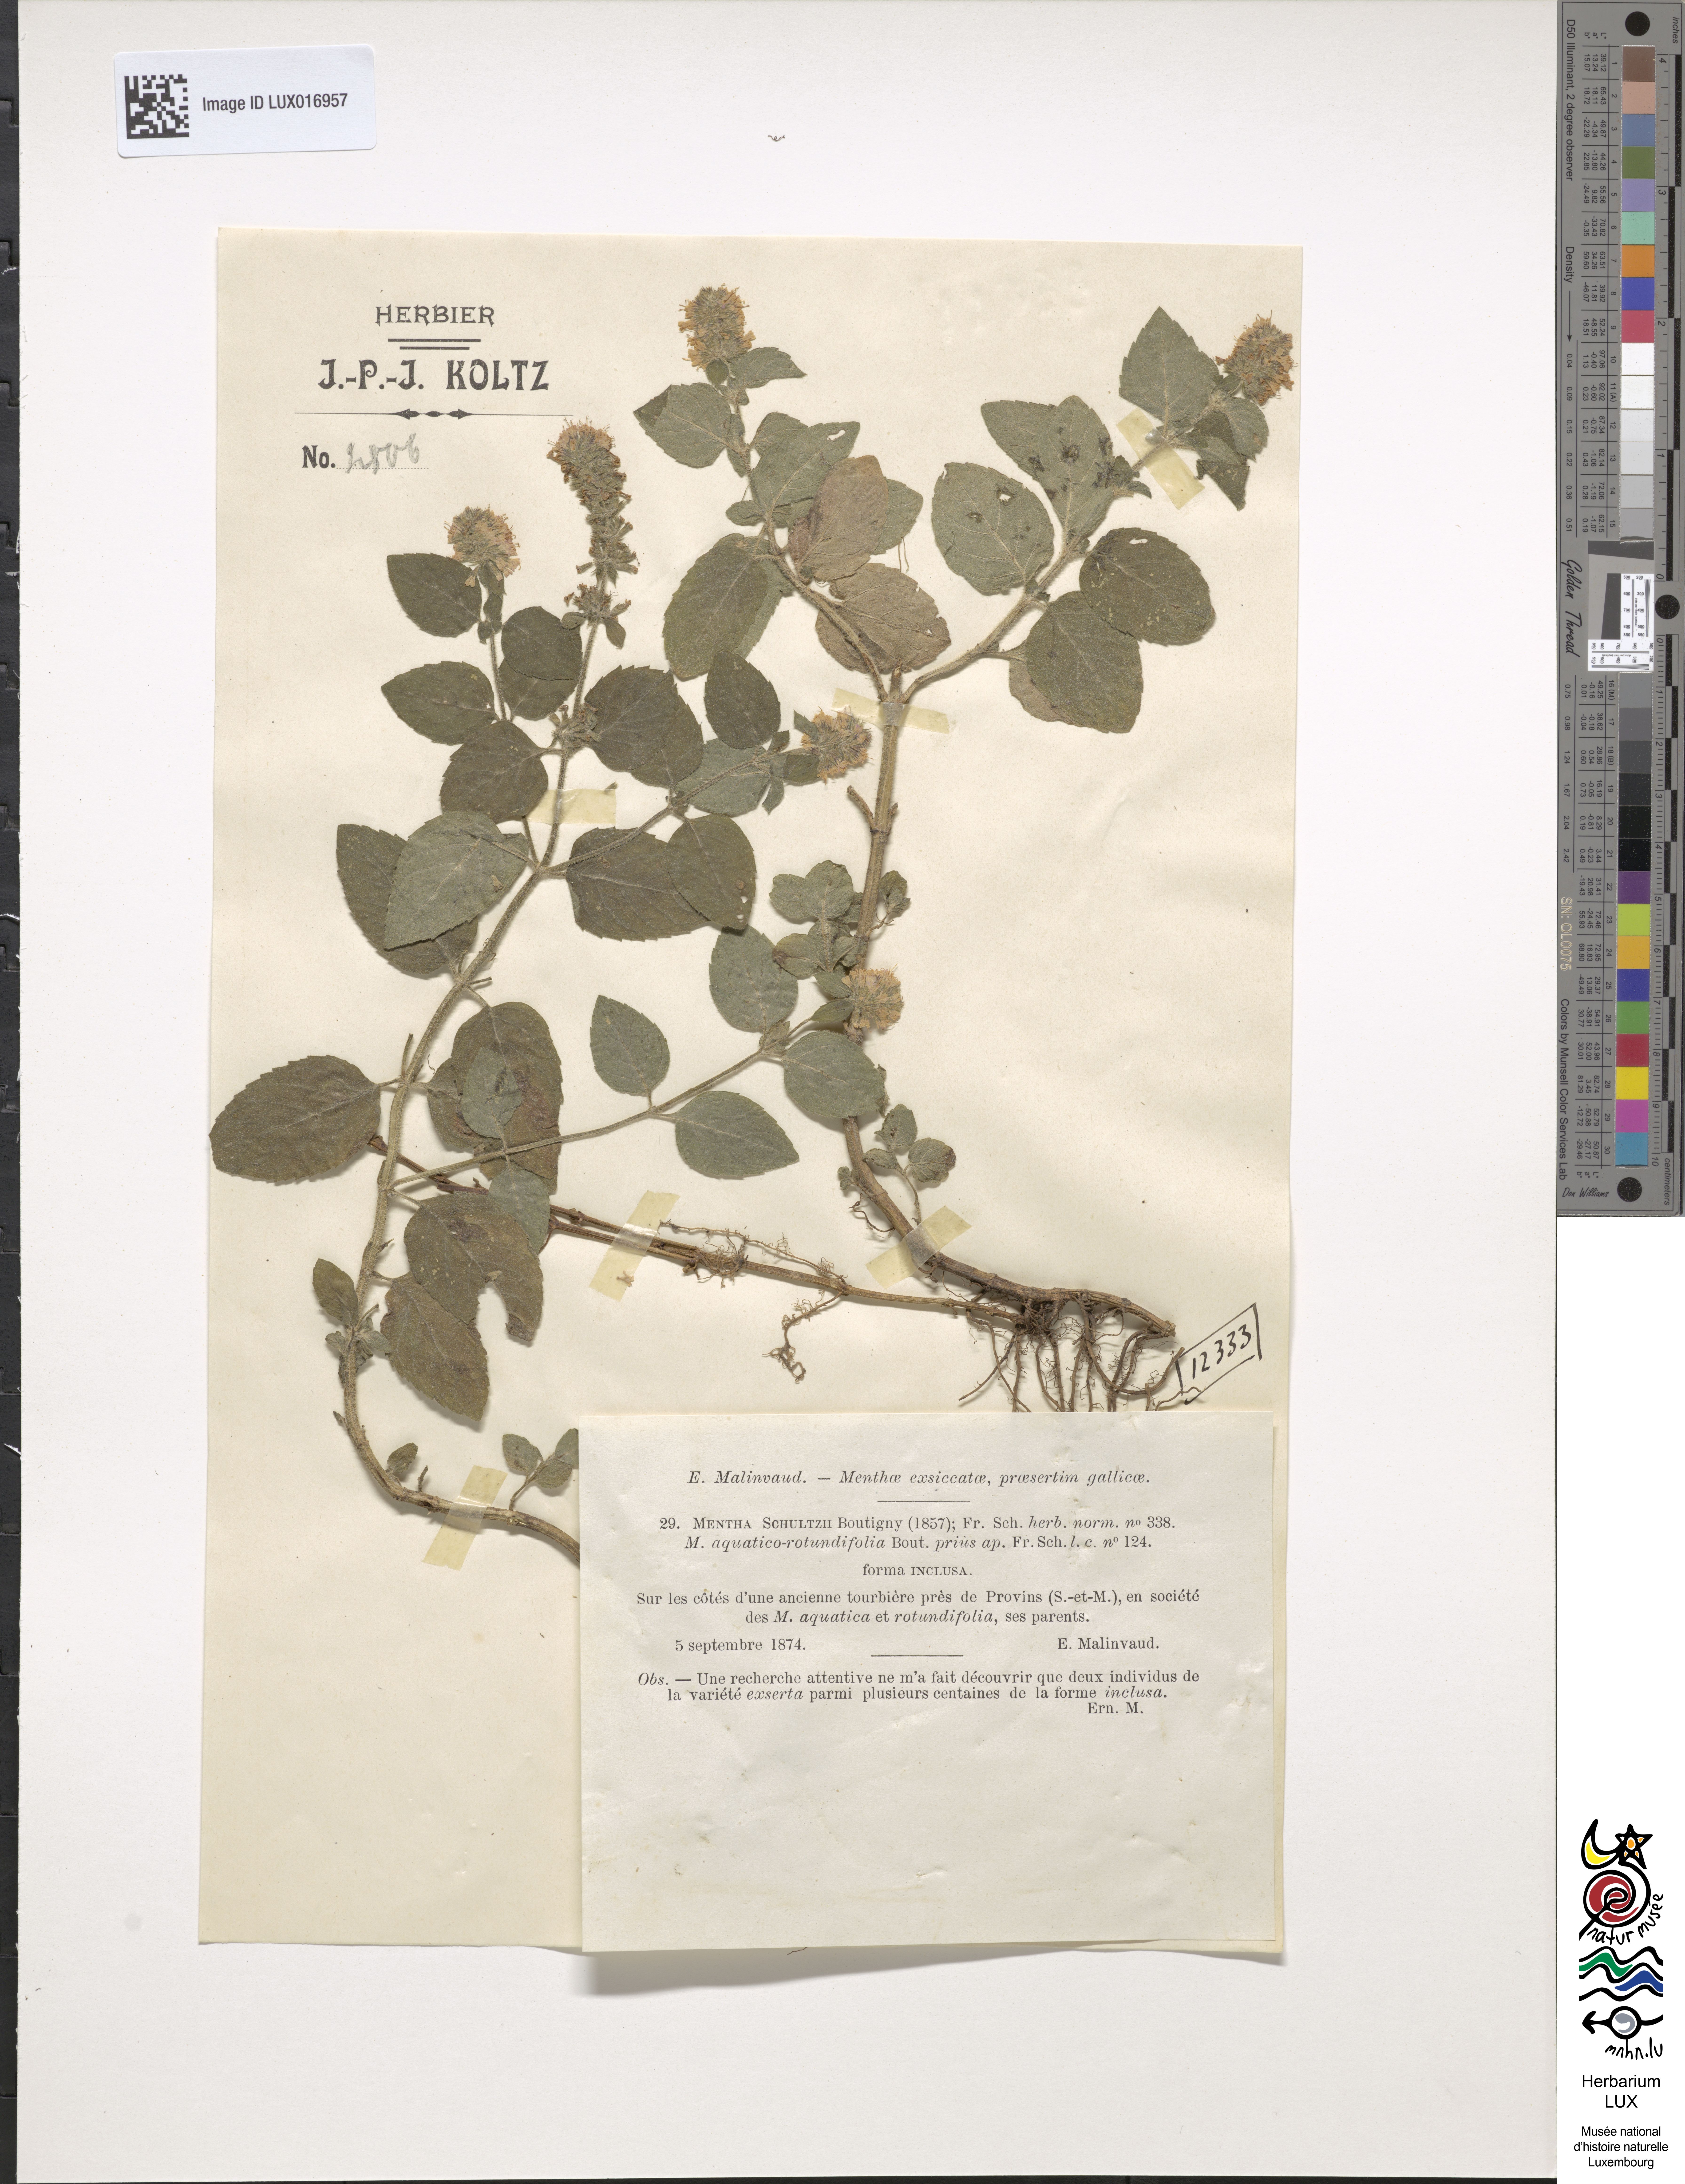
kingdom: Plantae
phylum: Tracheophyta
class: Magnoliopsida
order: Lamiales
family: Lamiaceae
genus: Mentha
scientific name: Mentha suavis
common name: Sweet mint
